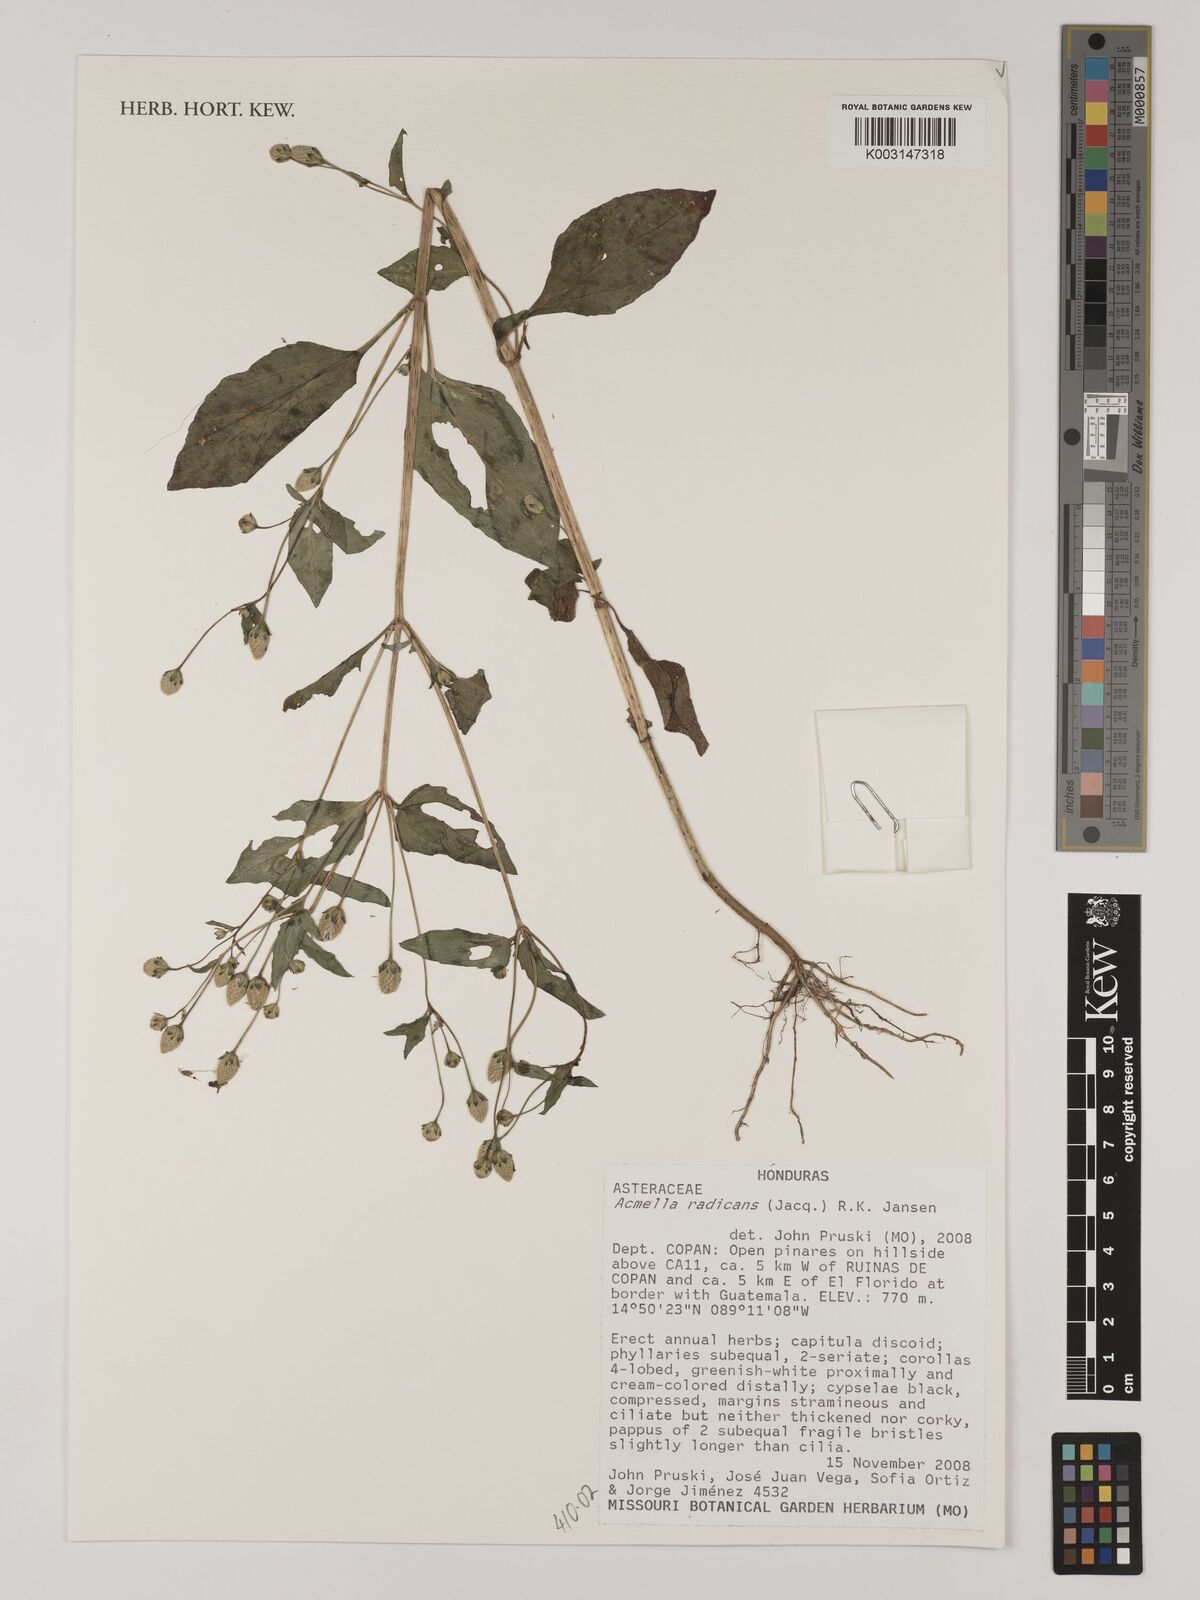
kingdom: Plantae
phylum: Tracheophyta
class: Magnoliopsida
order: Asterales
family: Asteraceae
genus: Acmella
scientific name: Acmella radicans
